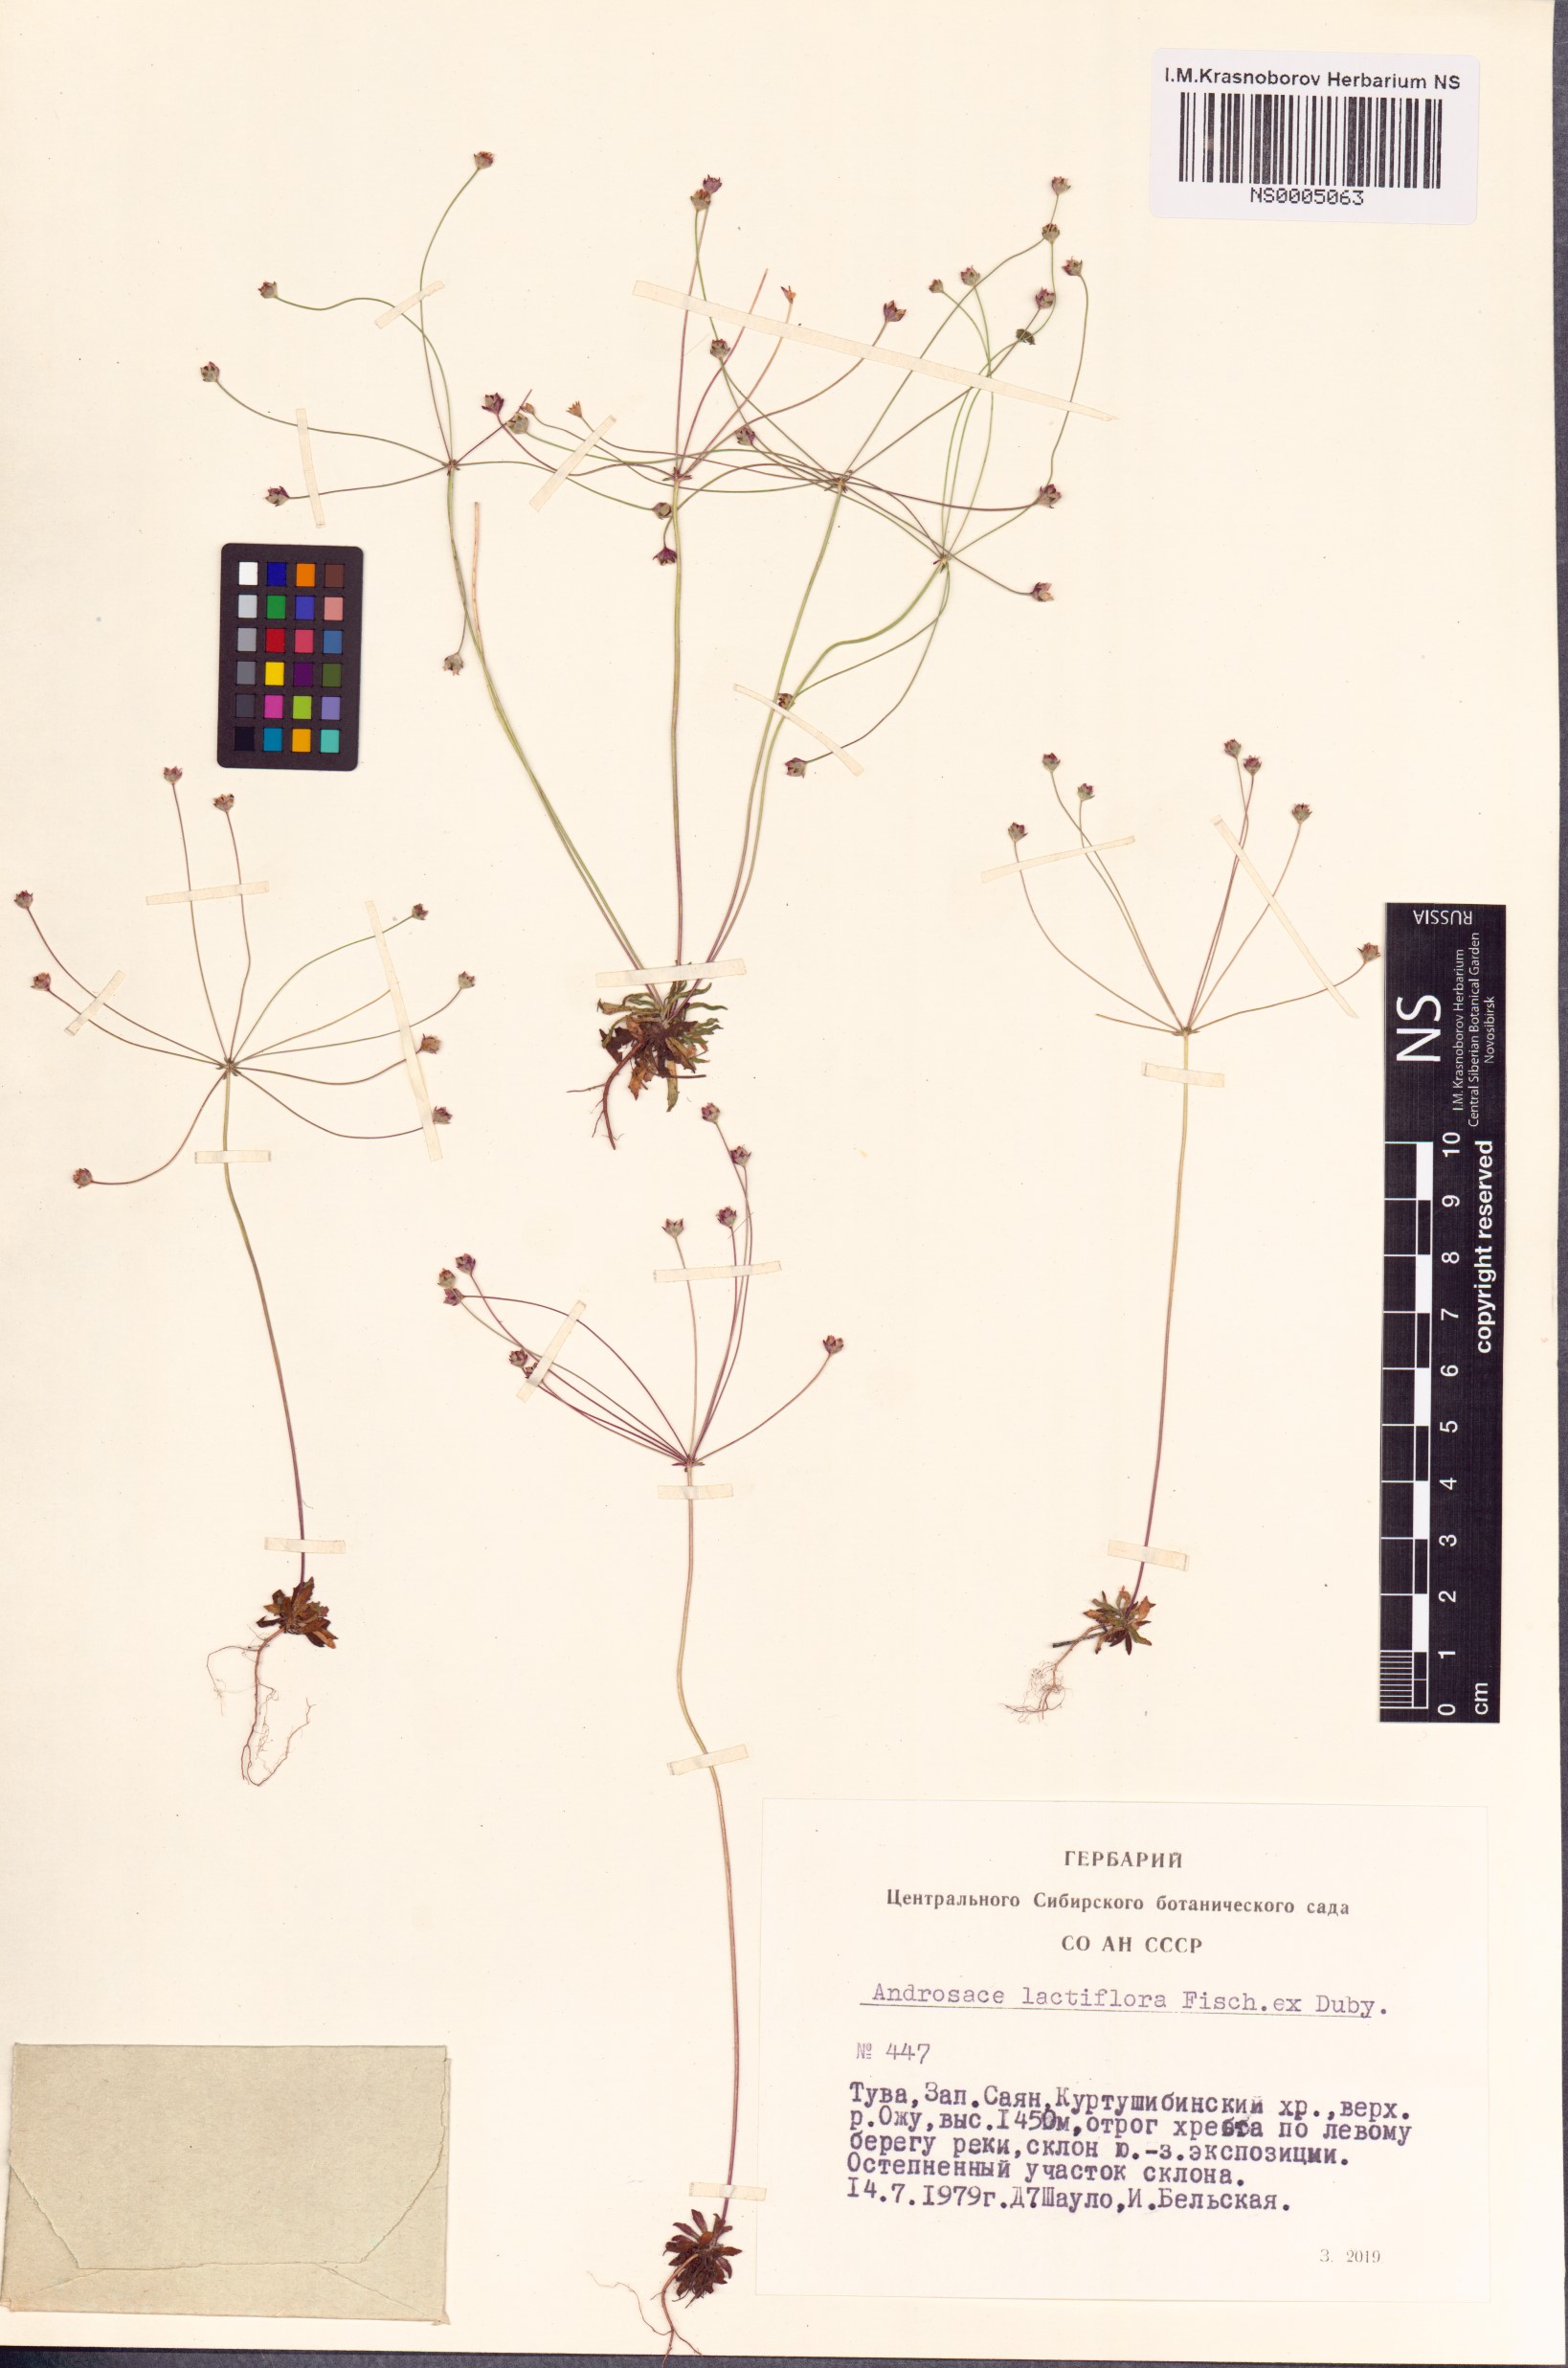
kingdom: Plantae
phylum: Tracheophyta
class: Magnoliopsida
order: Ericales
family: Primulaceae
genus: Androsace
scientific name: Androsace lactiflora
